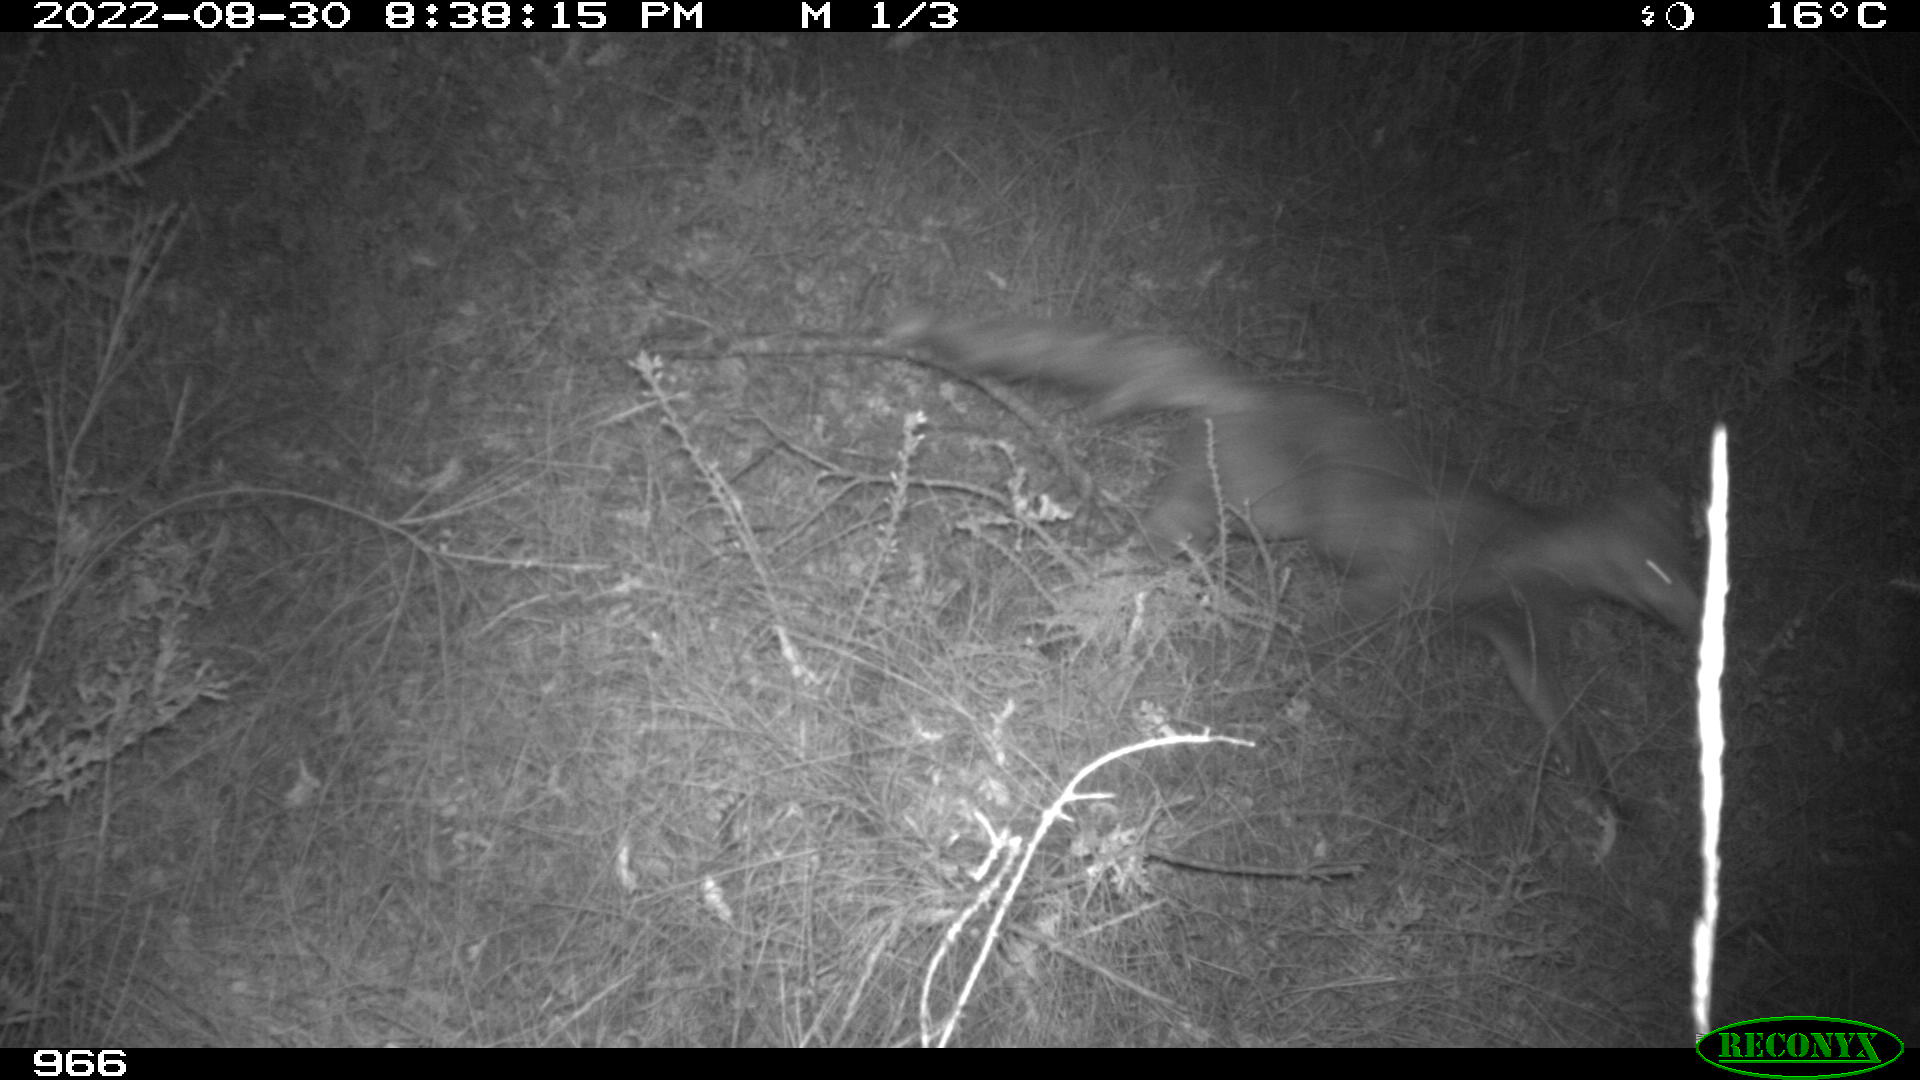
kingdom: Animalia
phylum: Chordata
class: Mammalia
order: Carnivora
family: Canidae
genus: Vulpes
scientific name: Vulpes vulpes
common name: Red fox
